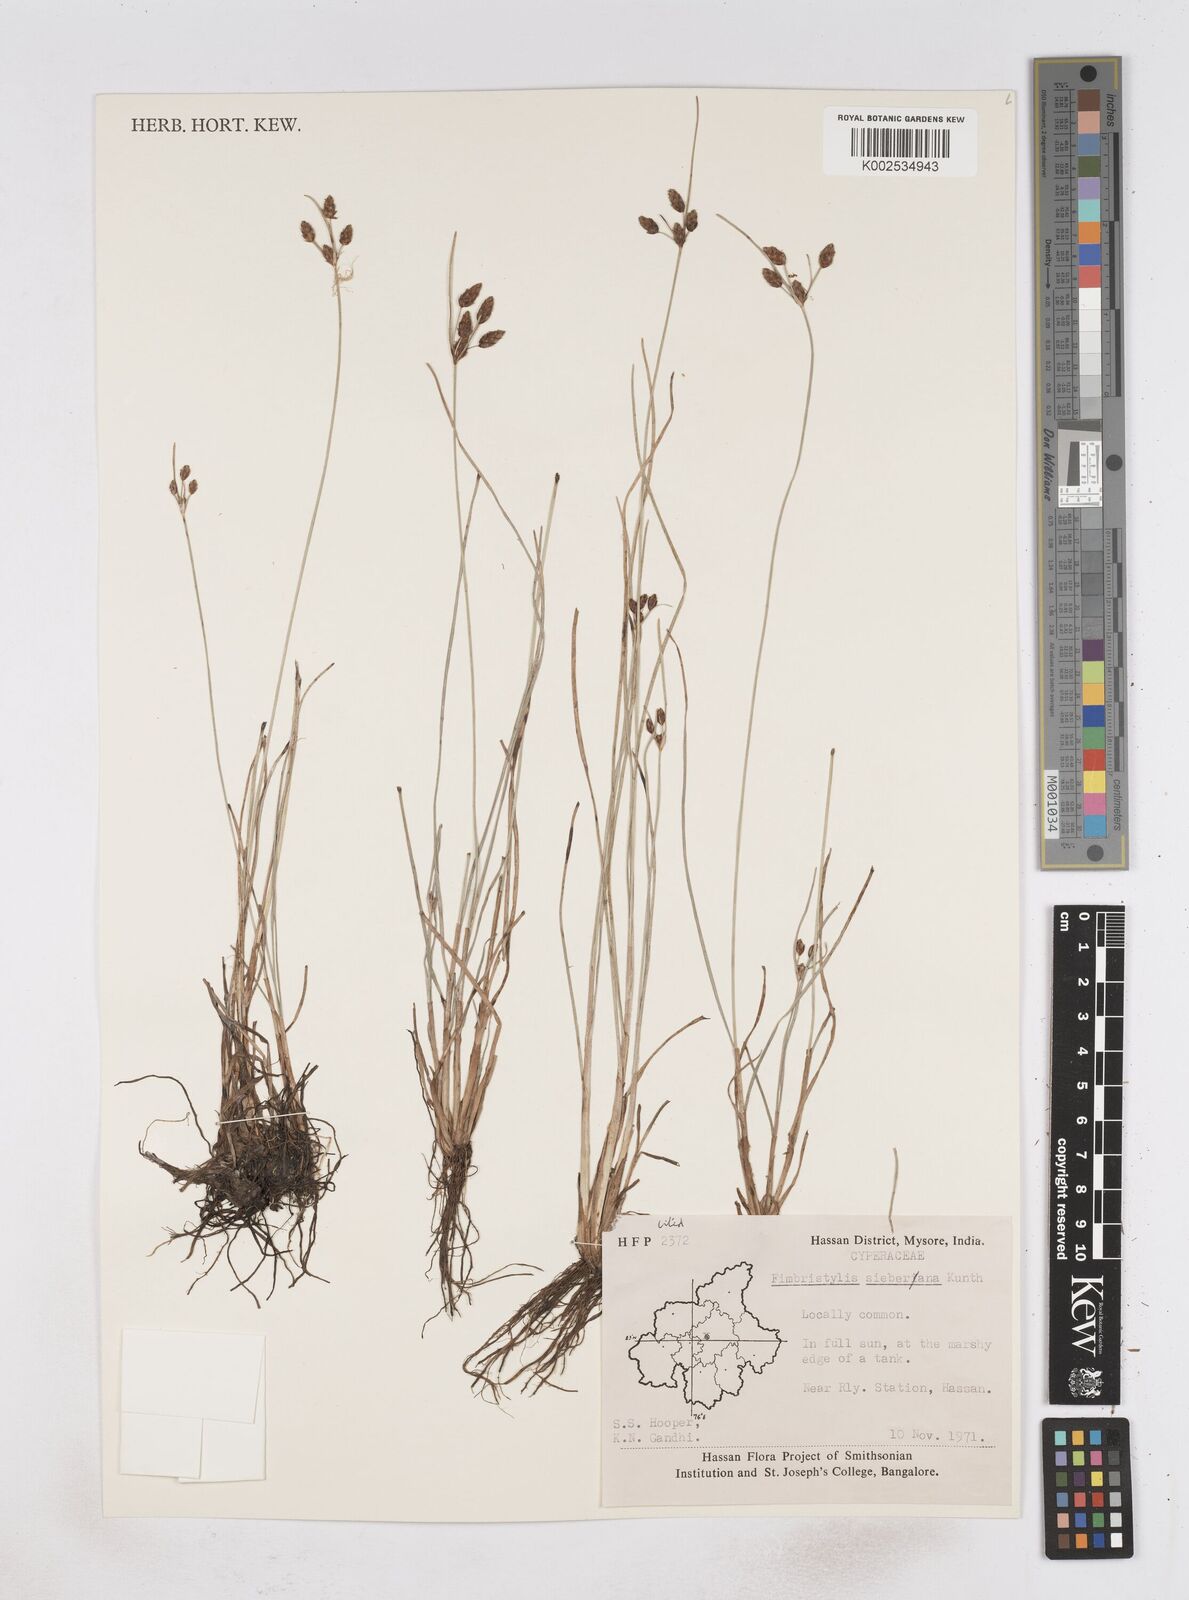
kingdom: Plantae
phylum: Tracheophyta
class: Liliopsida
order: Poales
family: Cyperaceae
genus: Fimbristylis
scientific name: Fimbristylis ferruginea
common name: West indian fimbry
